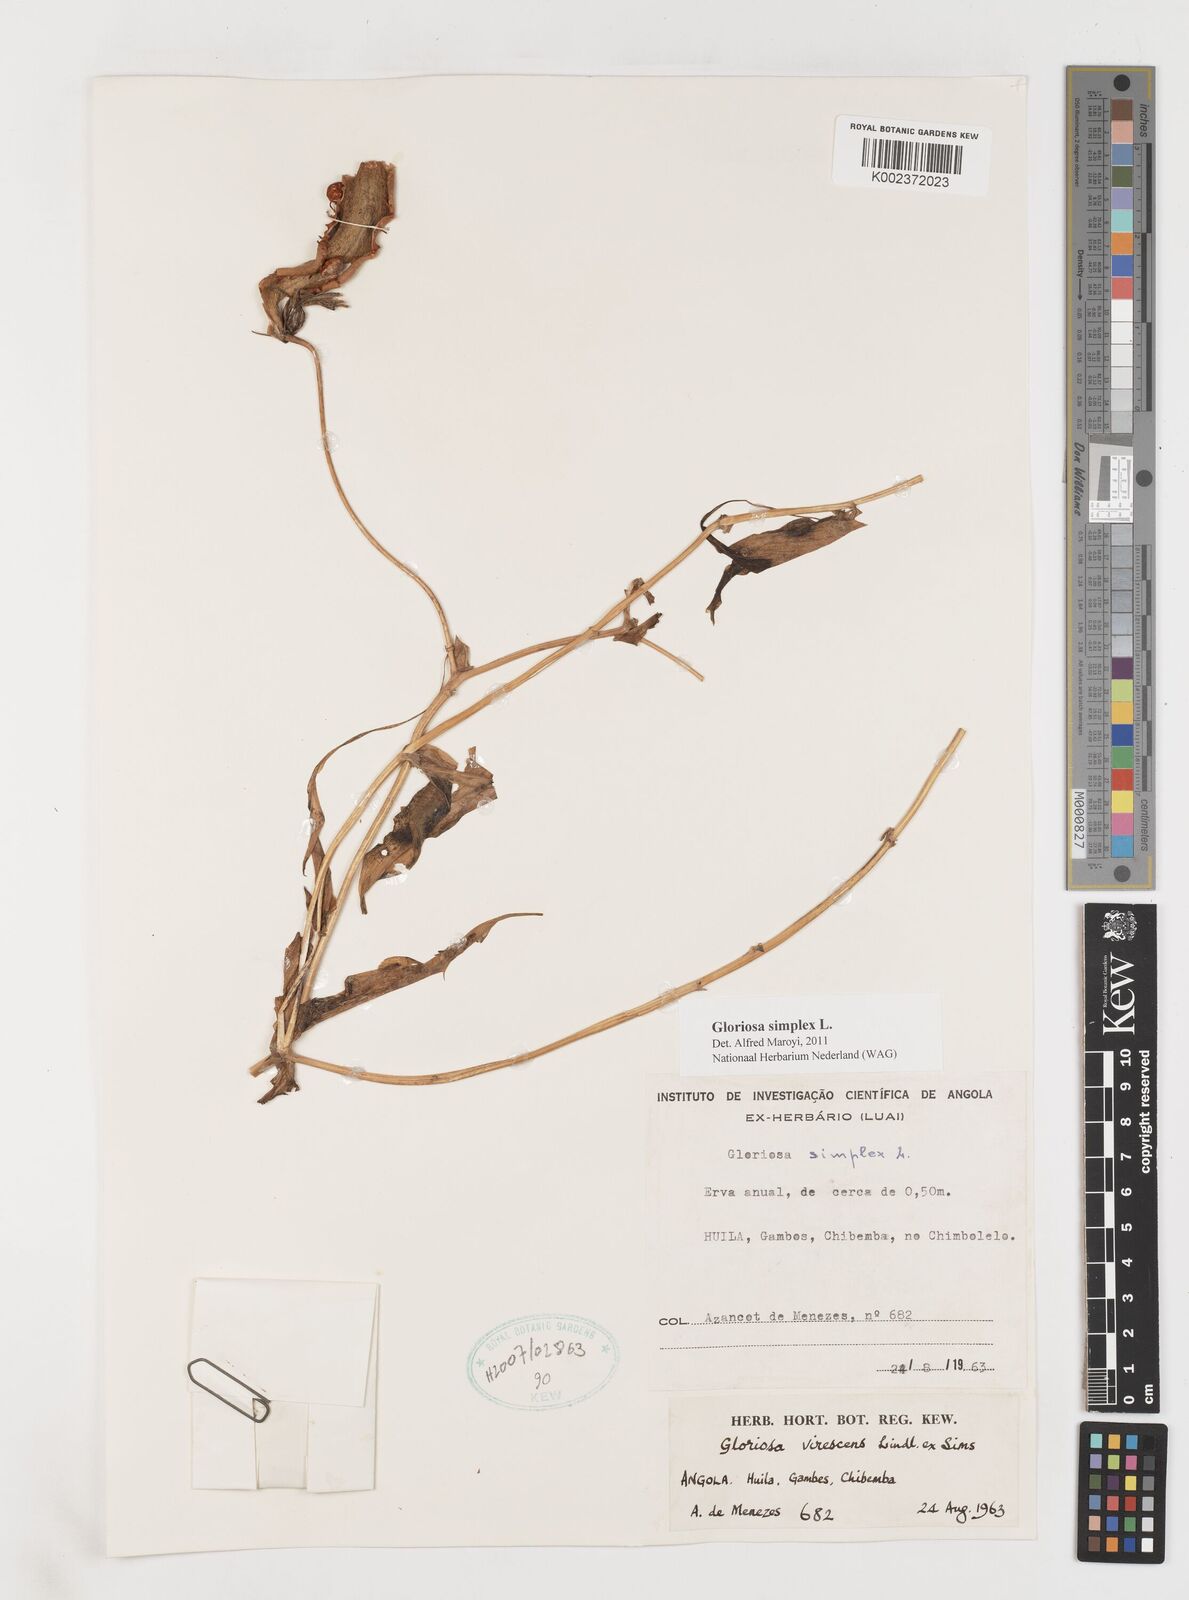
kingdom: Plantae
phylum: Tracheophyta
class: Liliopsida
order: Liliales
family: Colchicaceae
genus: Gloriosa
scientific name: Gloriosa superba
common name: Flame lily
